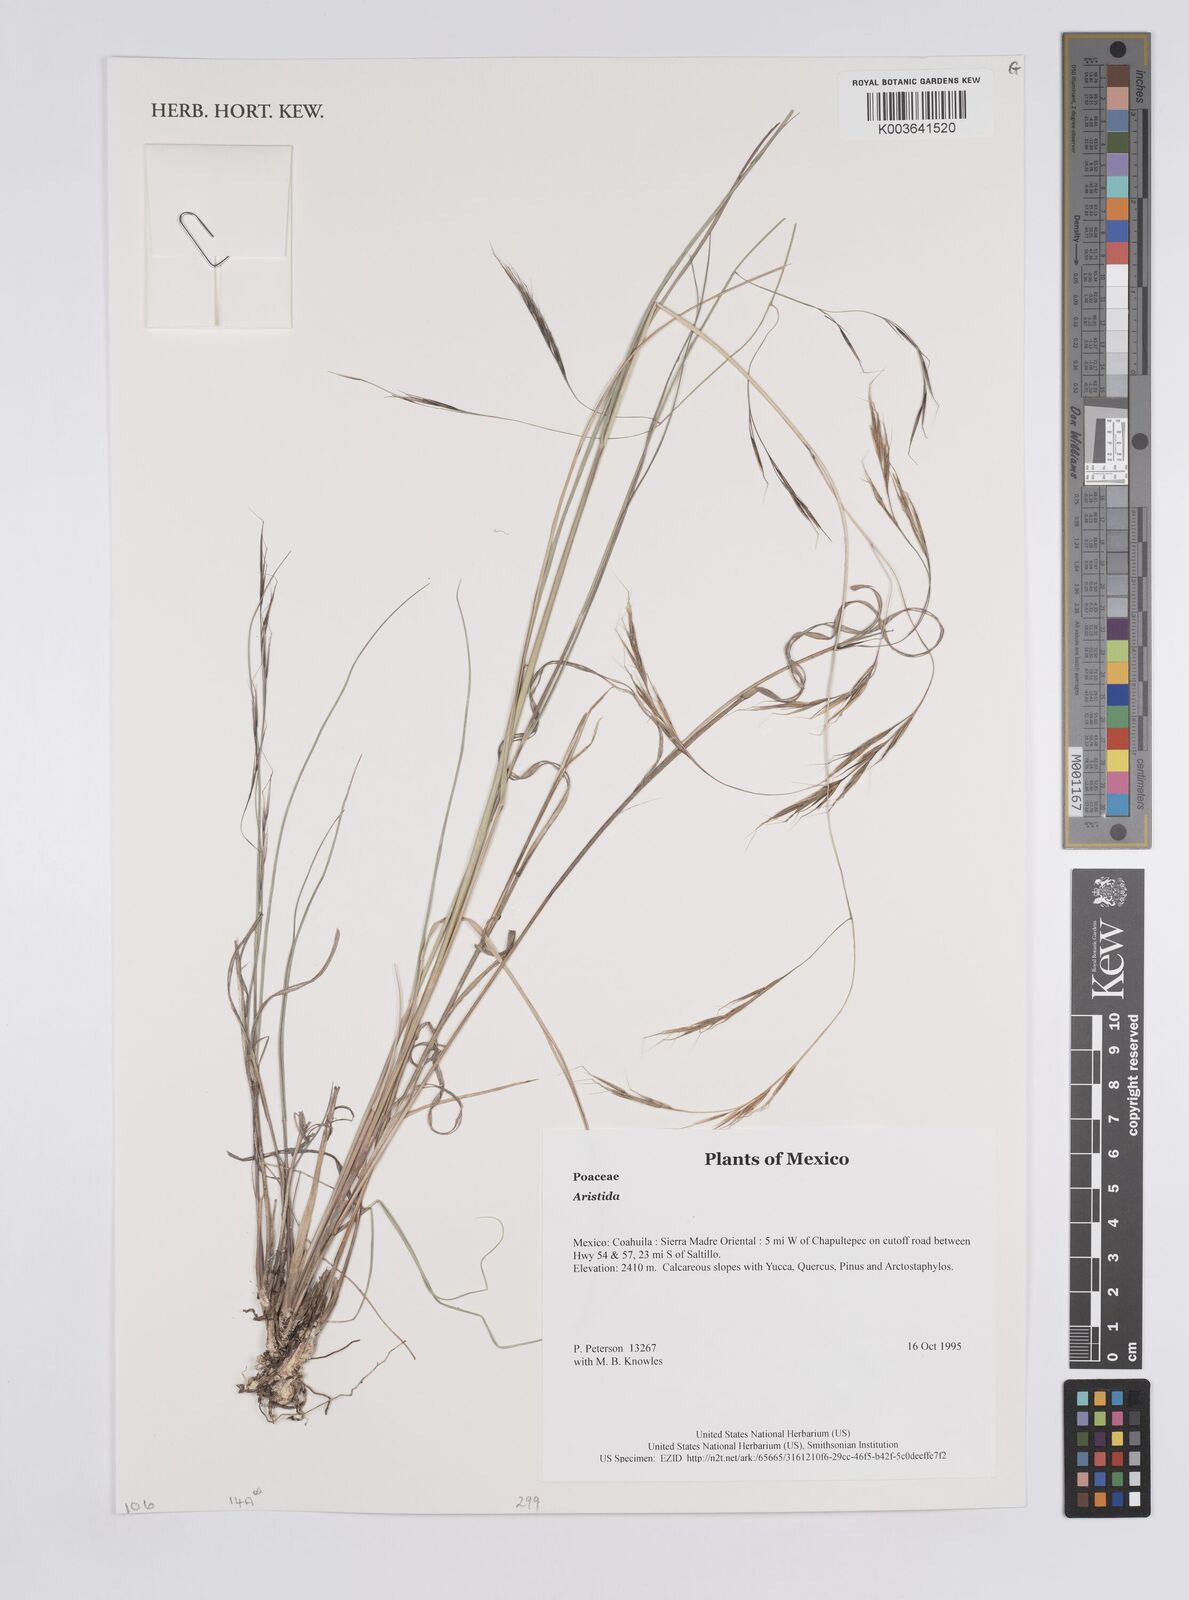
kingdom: Plantae
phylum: Tracheophyta
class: Liliopsida
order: Poales
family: Poaceae
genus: Aristida
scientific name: Aristida
